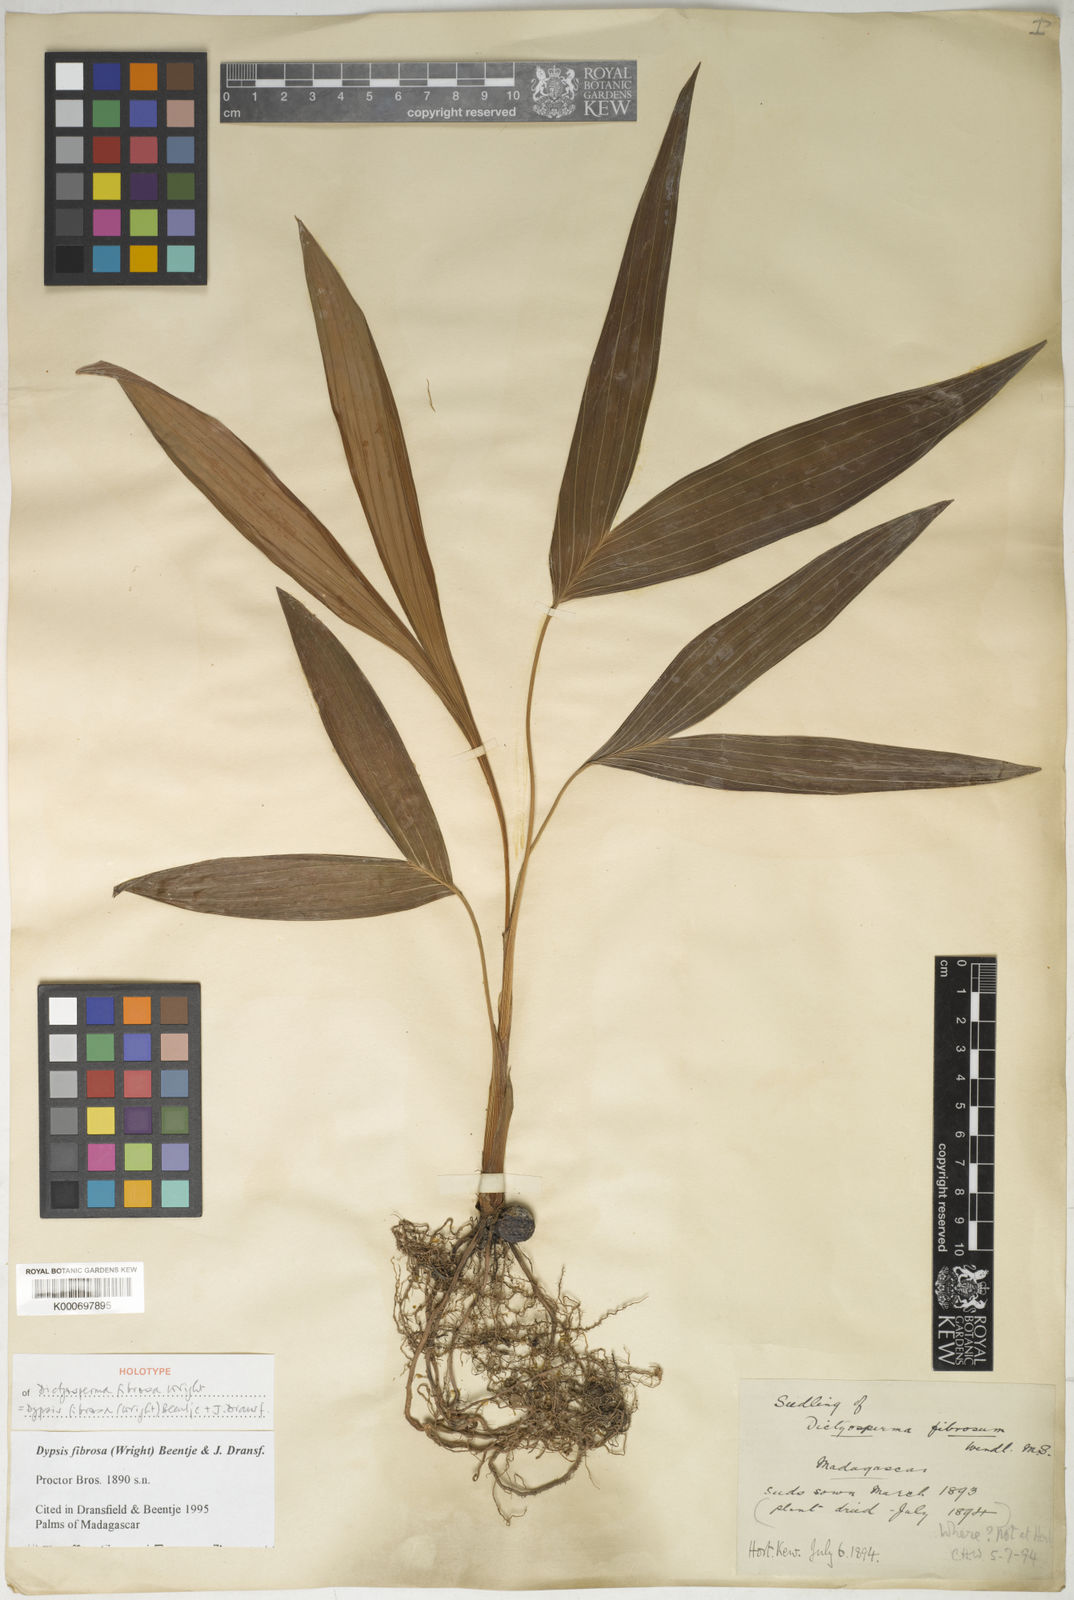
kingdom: Plantae
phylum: Tracheophyta
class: Liliopsida
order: Arecales
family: Arecaceae
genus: Dypsis
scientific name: Dypsis fibrosa
